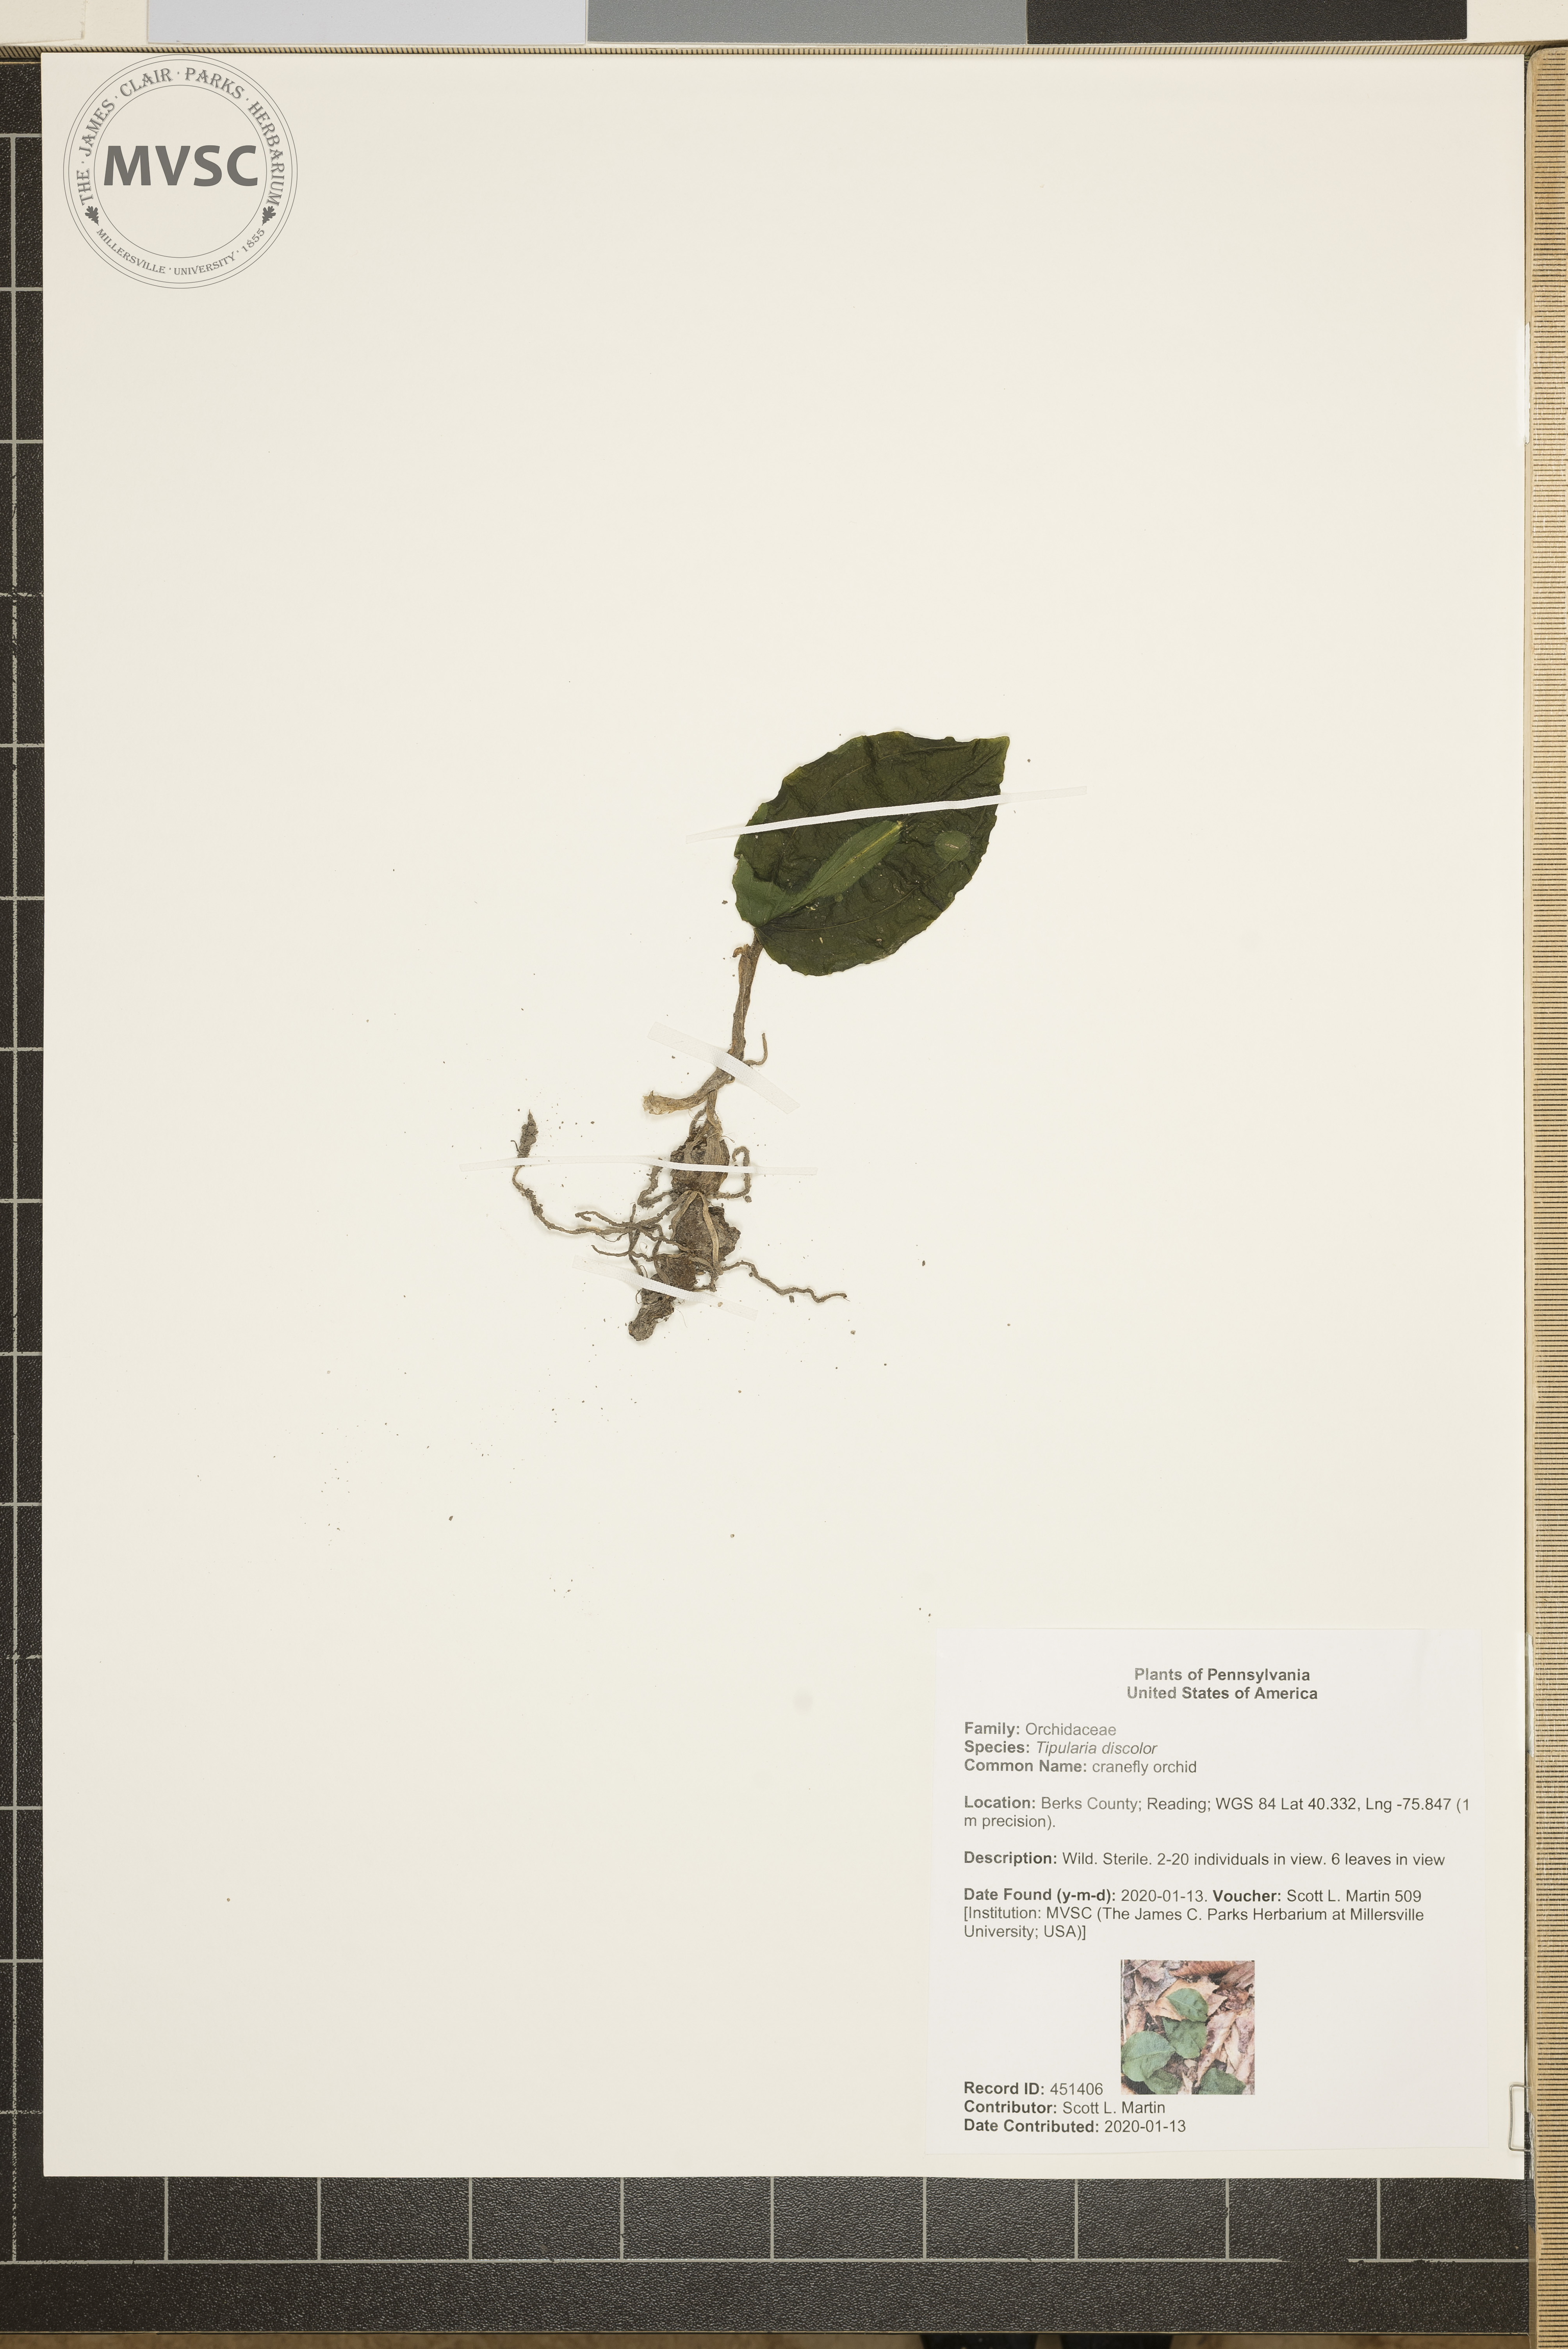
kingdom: Plantae
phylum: Tracheophyta
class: Liliopsida
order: Asparagales
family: Orchidaceae
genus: Tipularia
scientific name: Tipularia discolor
